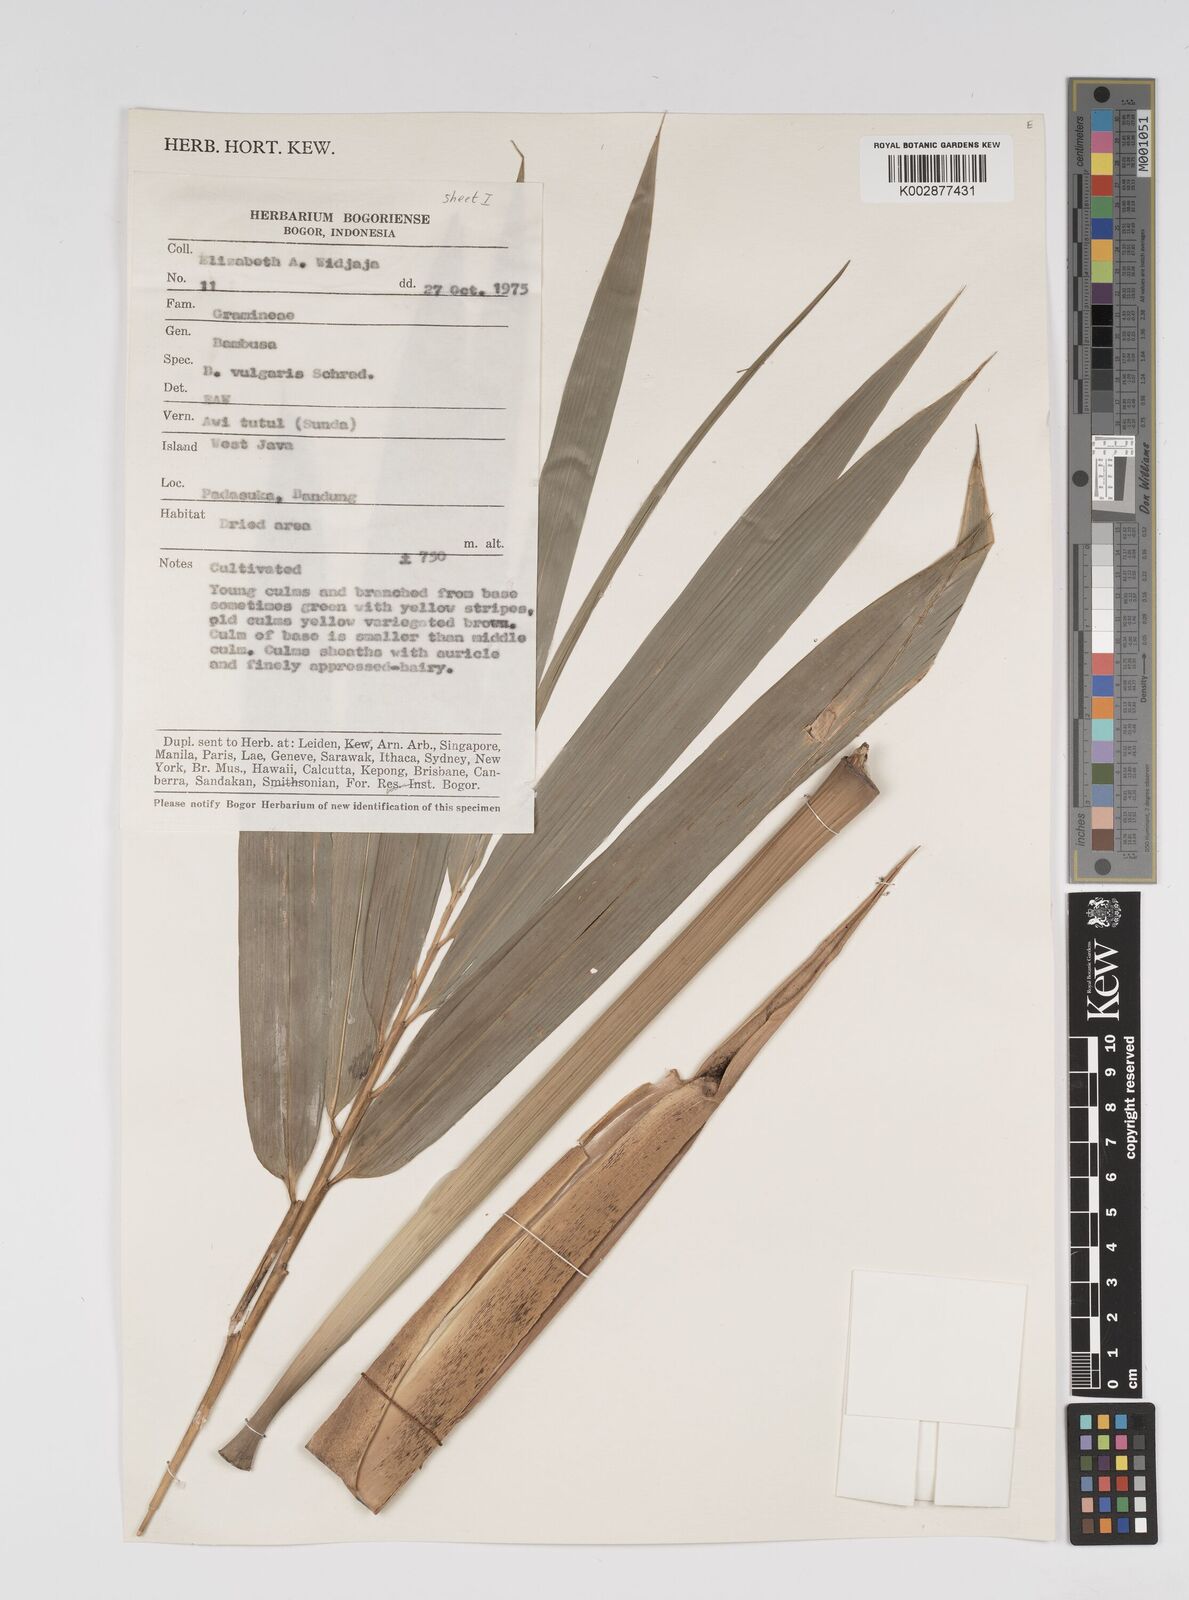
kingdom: Plantae
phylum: Tracheophyta
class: Liliopsida
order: Poales
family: Poaceae
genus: Bambusa
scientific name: Bambusa vulgaris
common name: Common bamboo
